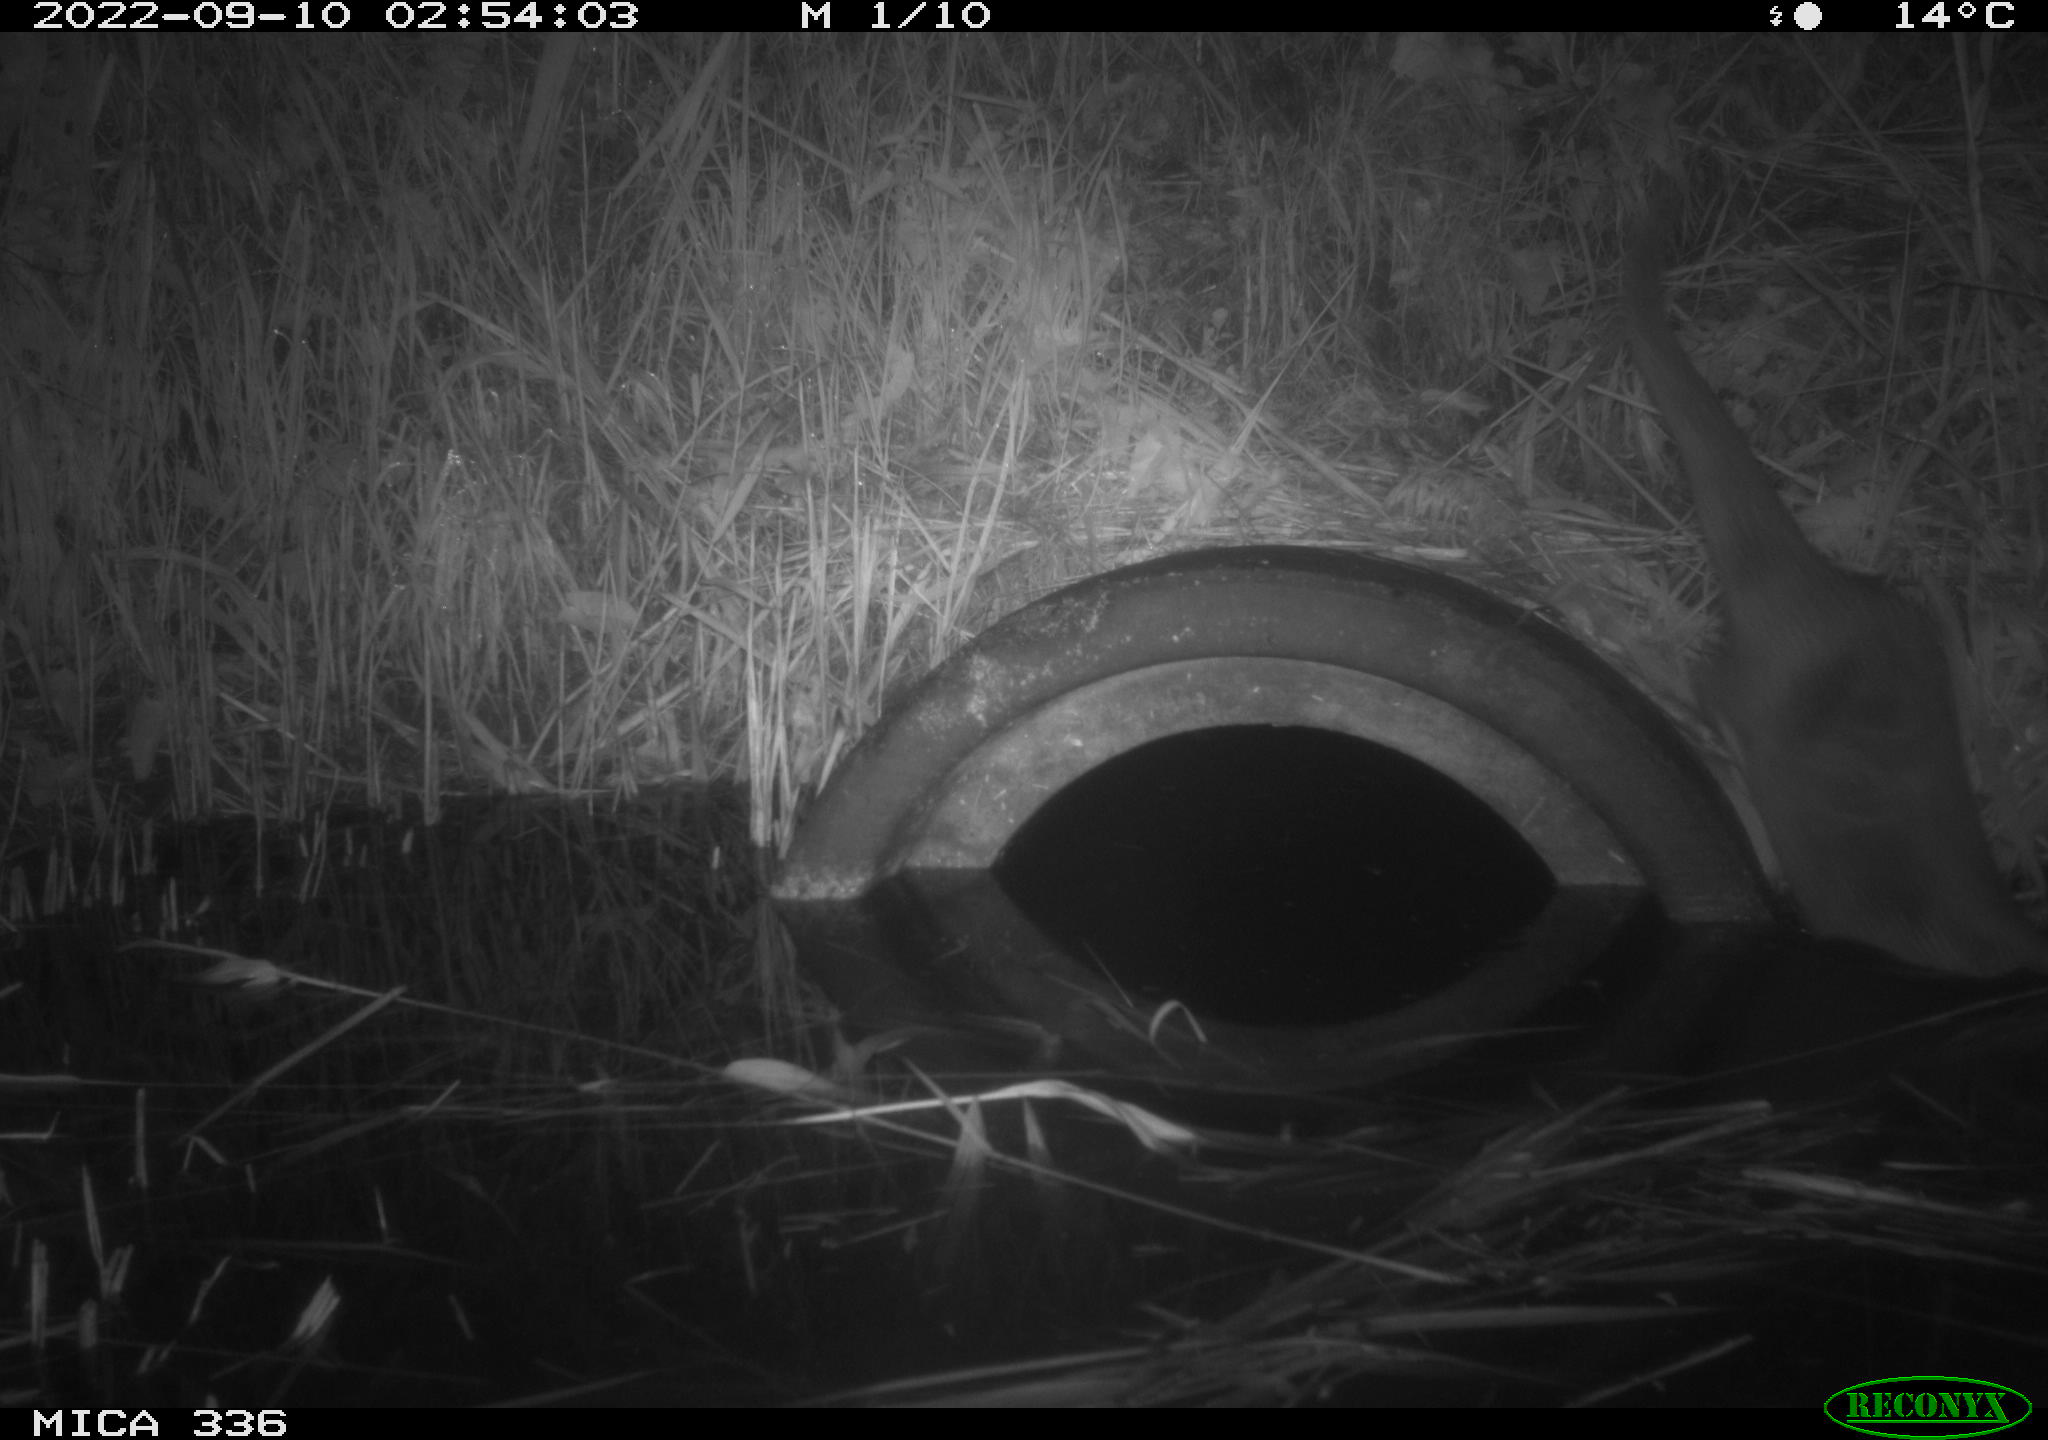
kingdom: Animalia
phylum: Chordata
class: Mammalia
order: Carnivora
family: Mustelidae
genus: Lutra
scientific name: Lutra lutra
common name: European otter
